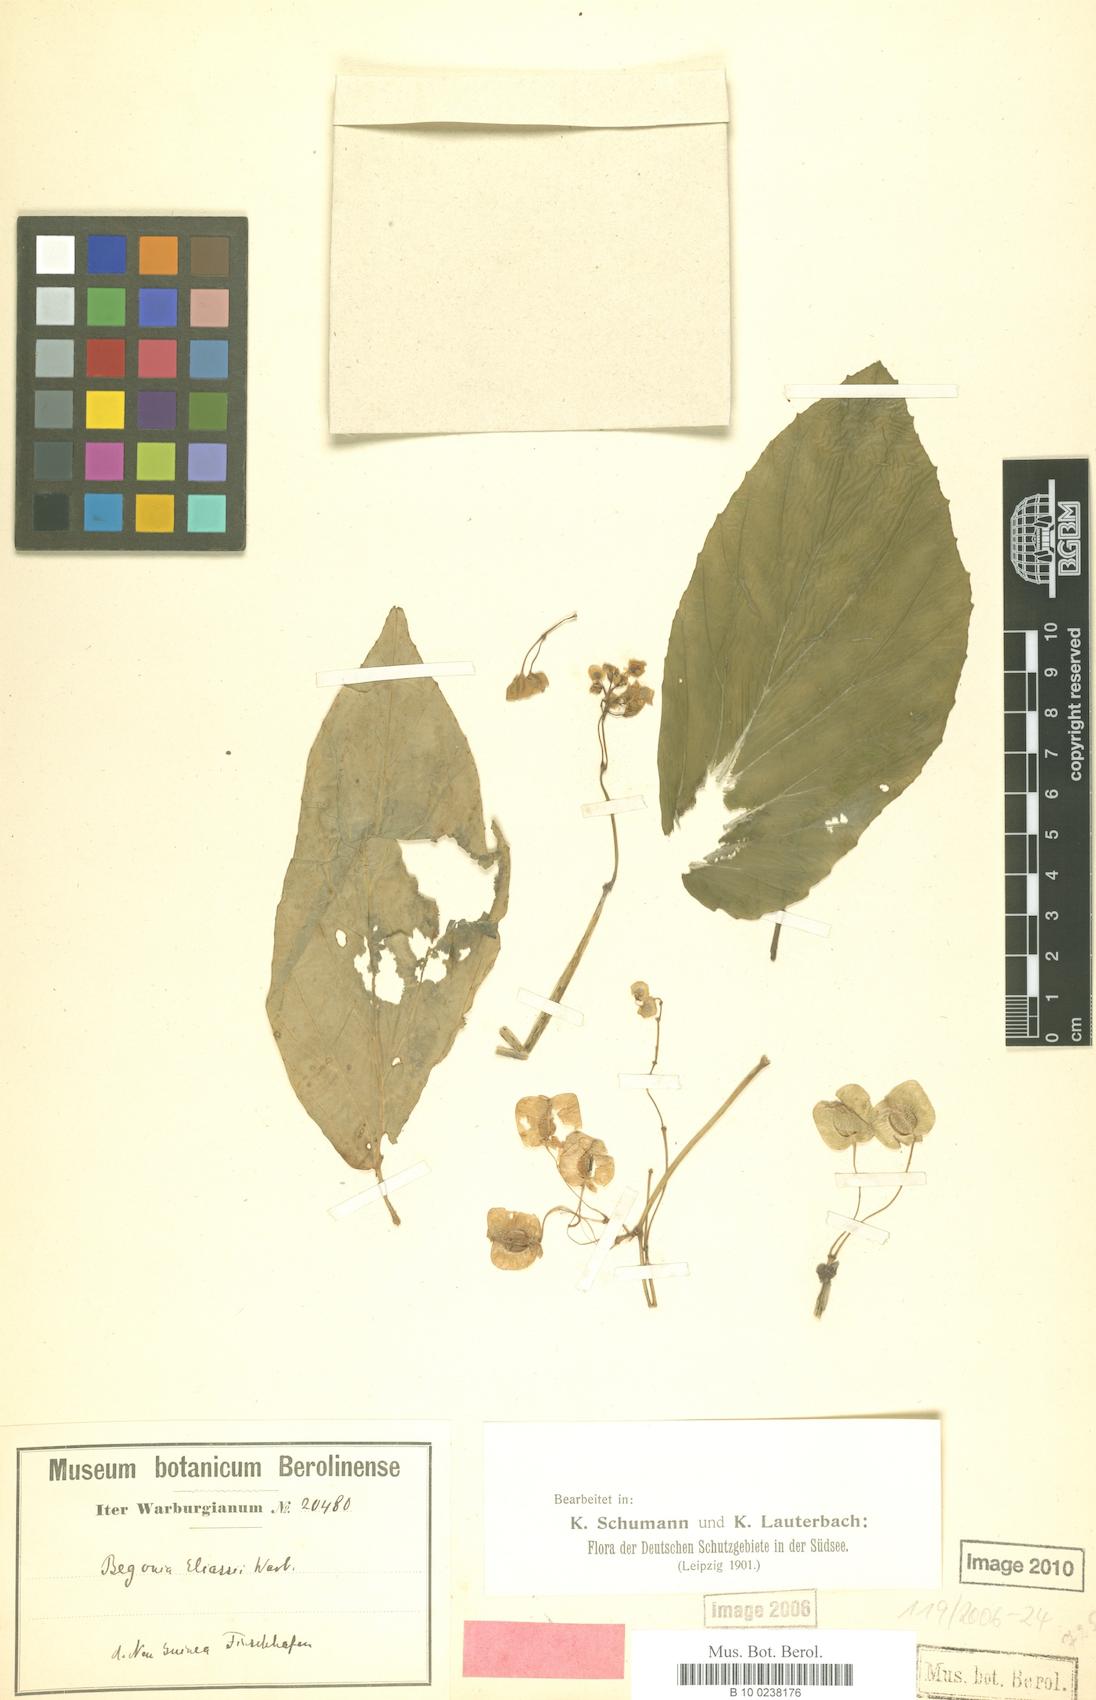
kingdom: Plantae
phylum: Tracheophyta
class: Magnoliopsida
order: Cucurbitales
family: Begoniaceae
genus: Begonia
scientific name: Begonia eliasii
